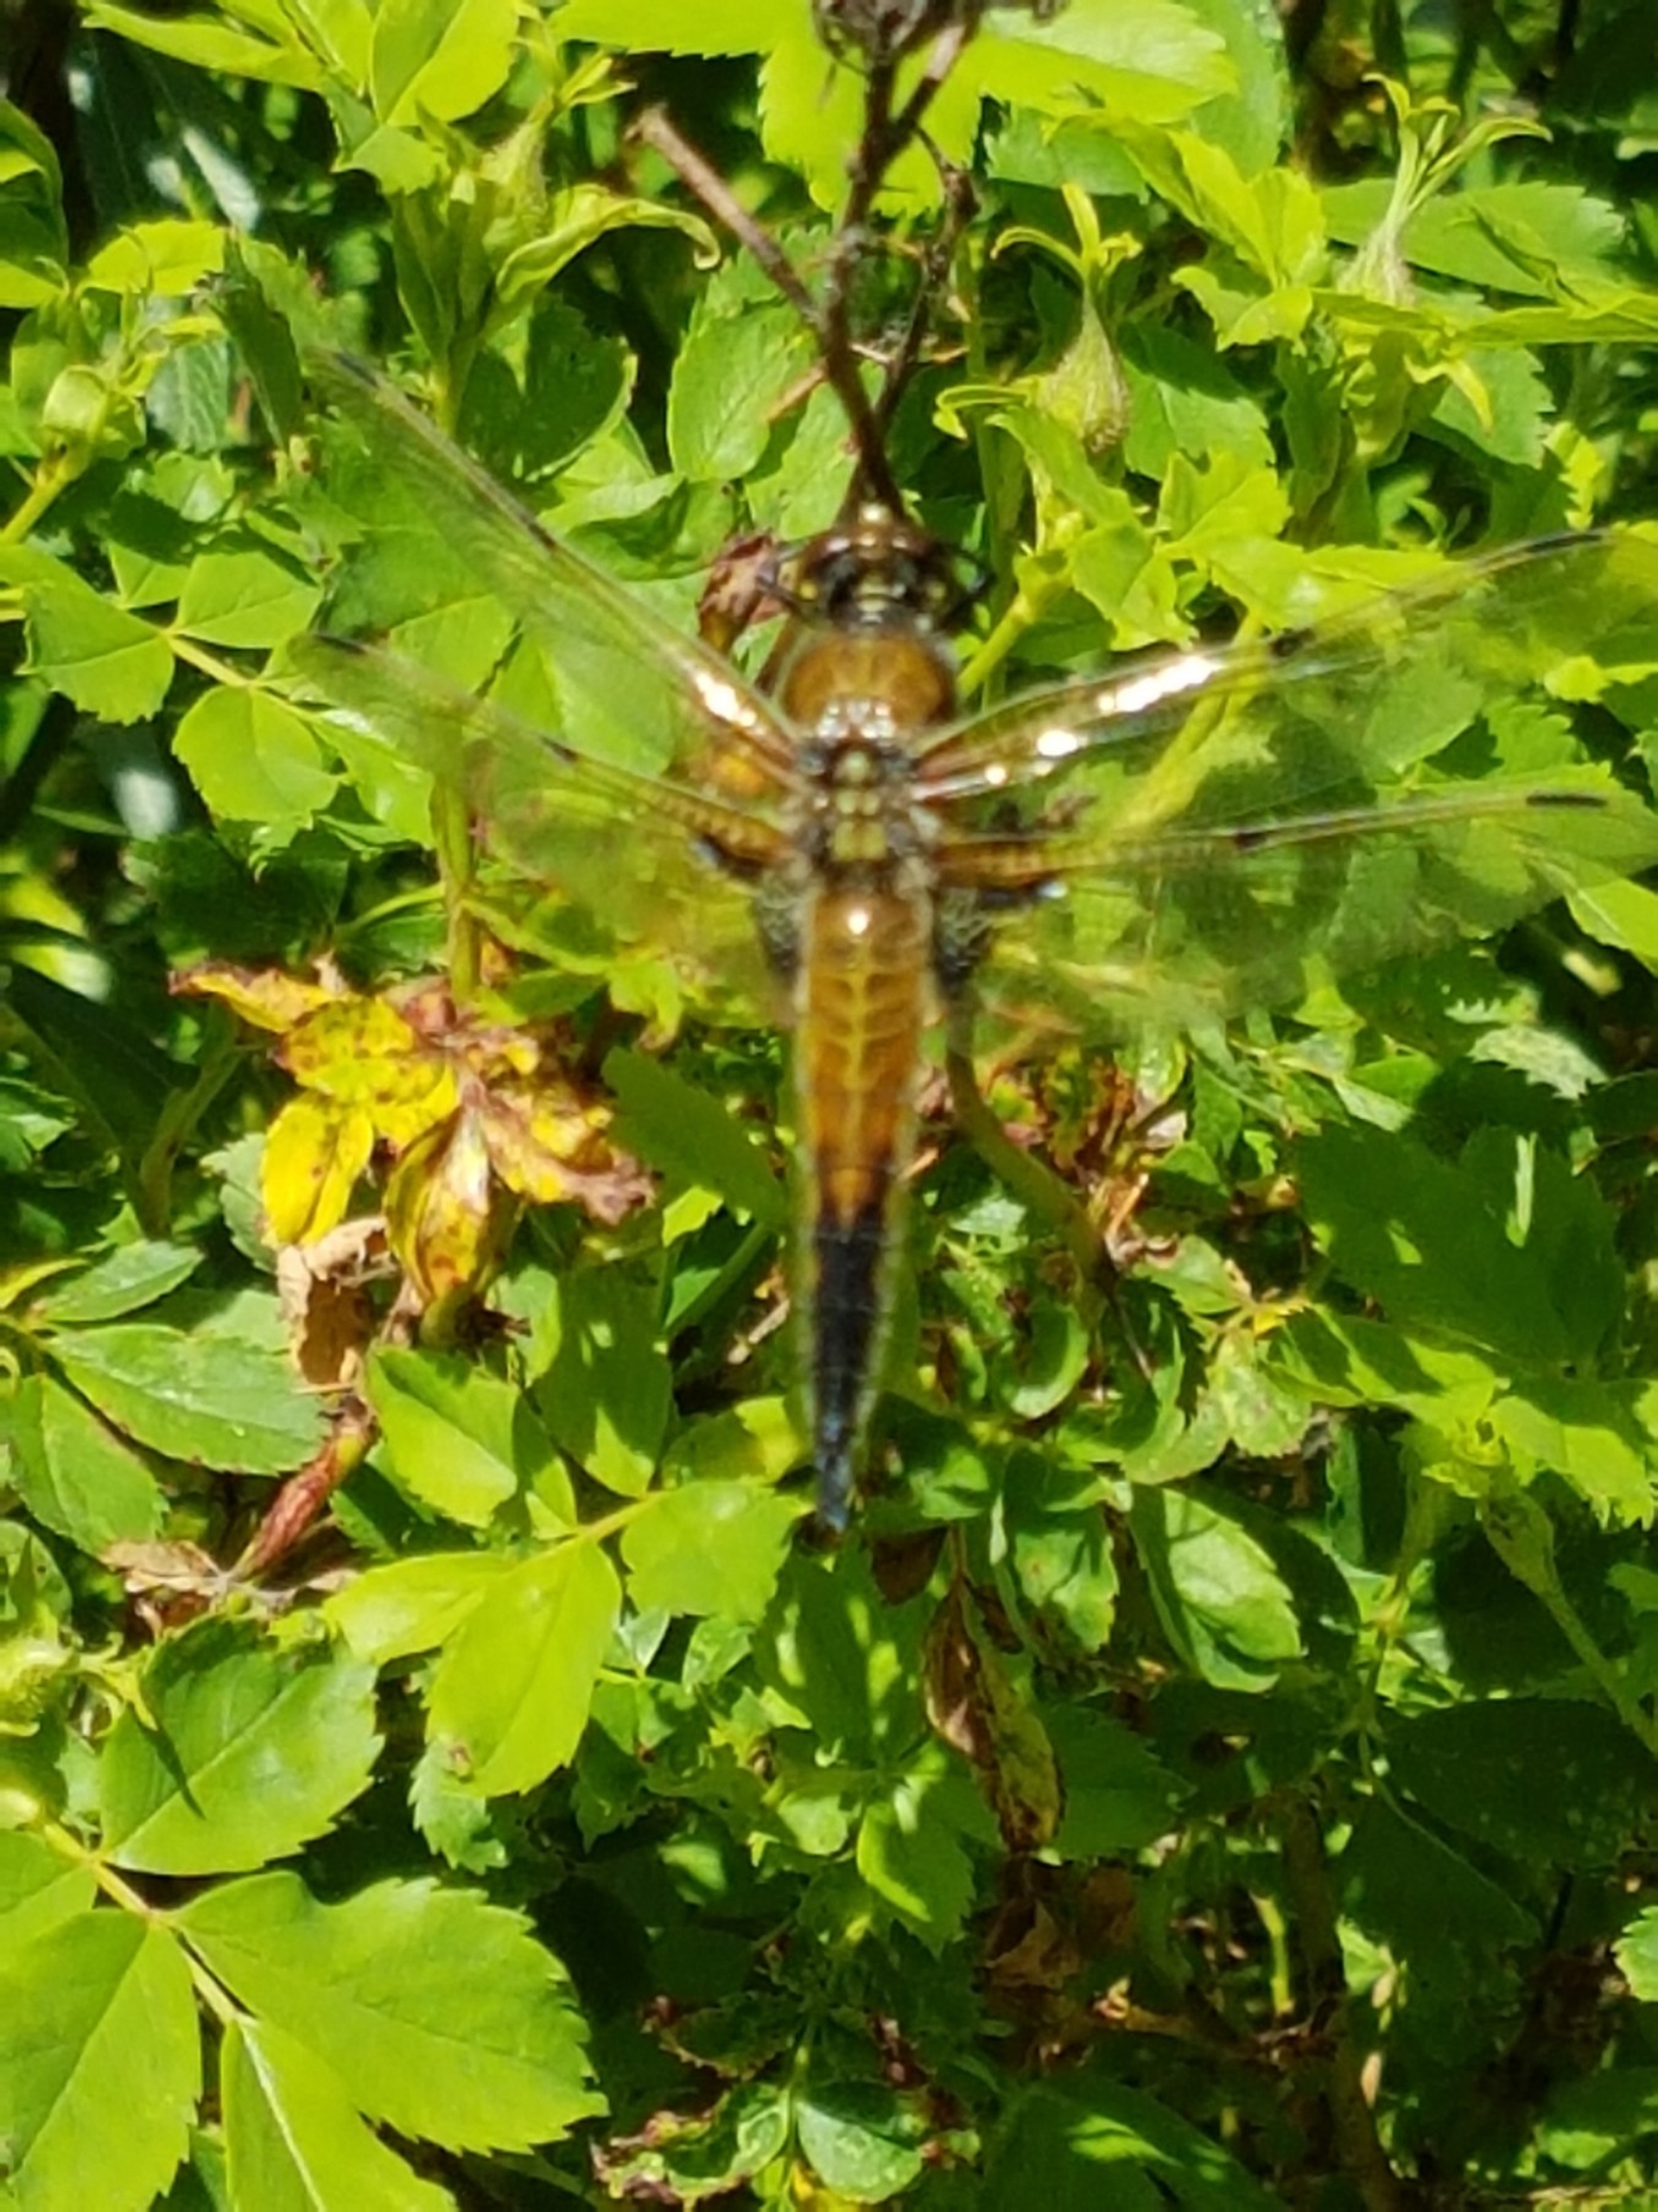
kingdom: Animalia
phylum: Arthropoda
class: Insecta
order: Odonata
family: Libellulidae
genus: Libellula
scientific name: Libellula quadrimaculata
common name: Fireplettet libel
